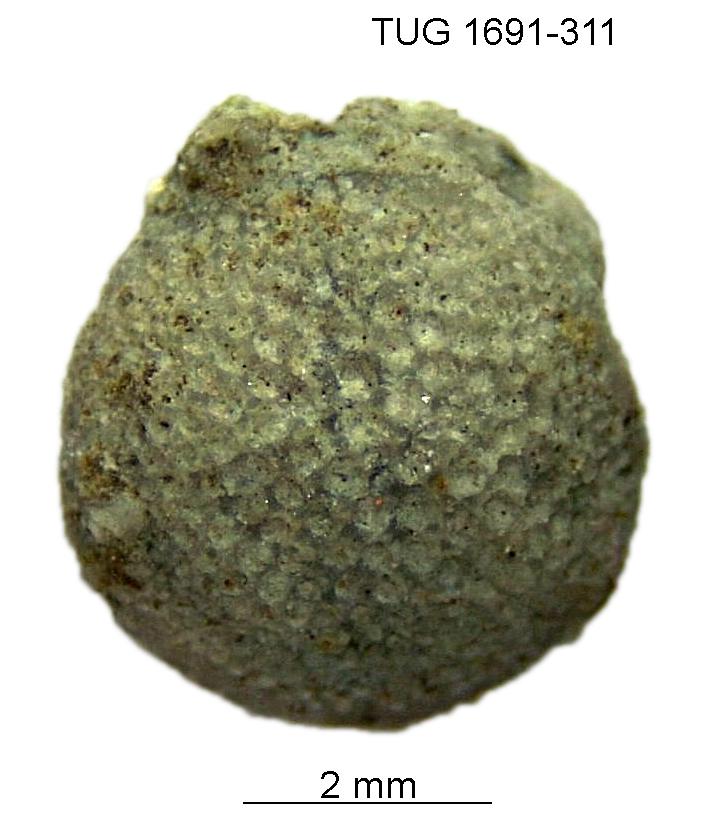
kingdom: Animalia
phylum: Bryozoa
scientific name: Bryozoa
